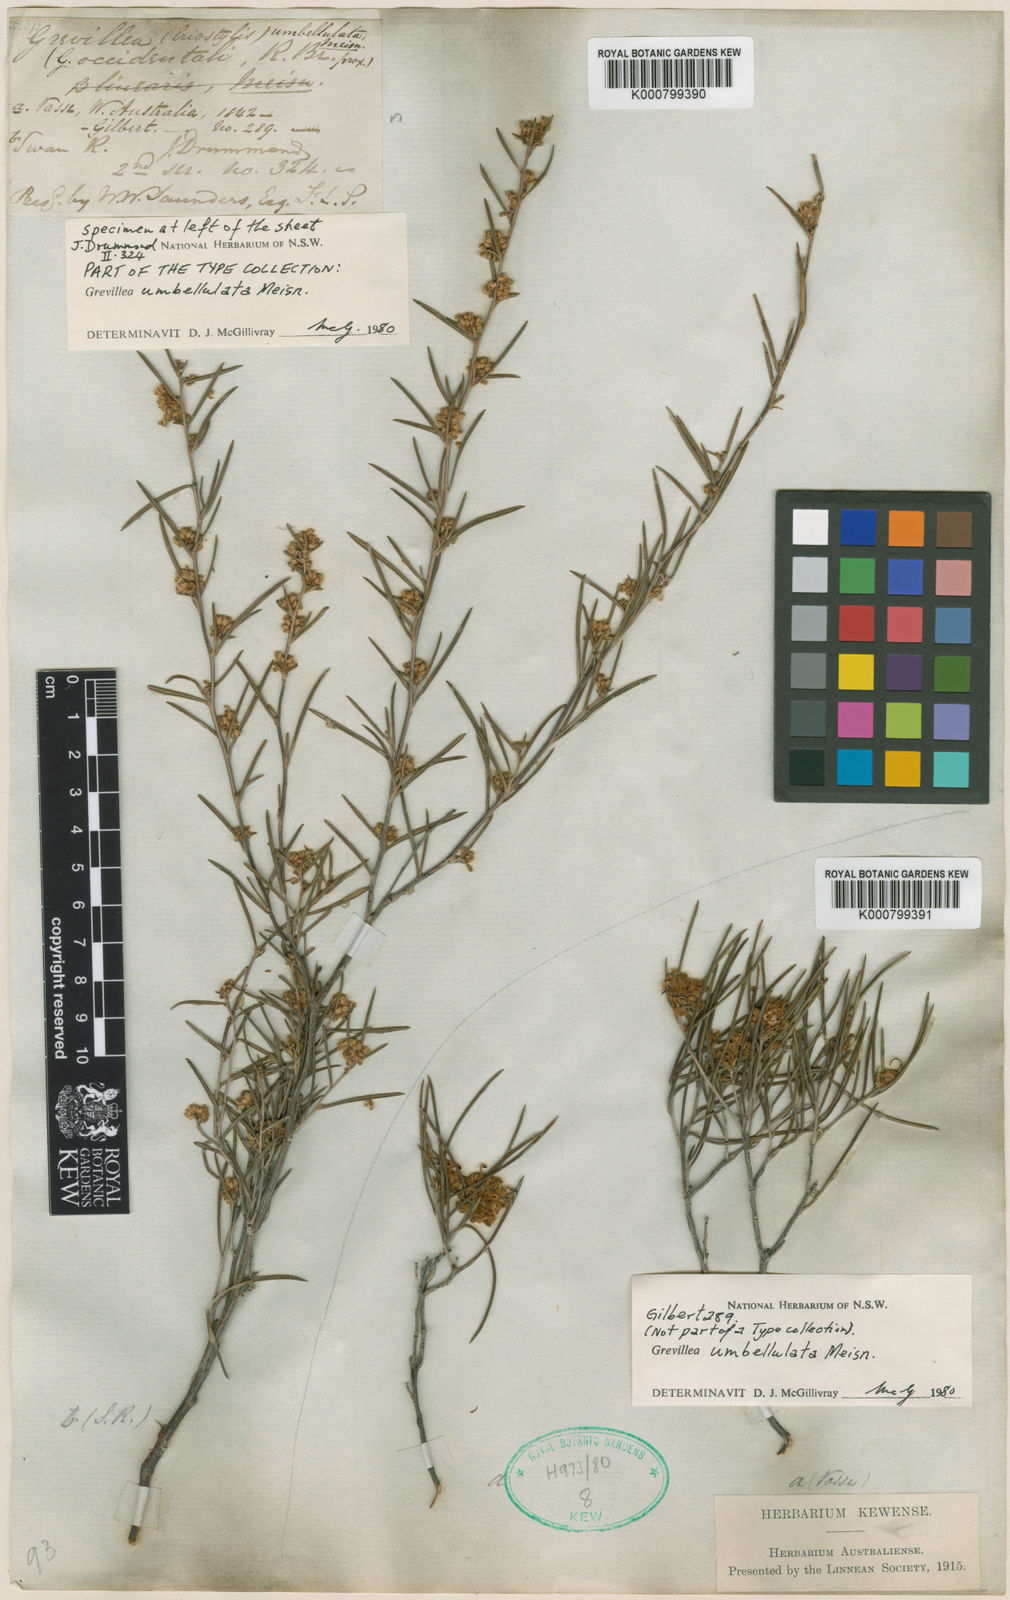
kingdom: Plantae
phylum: Tracheophyta
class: Magnoliopsida
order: Proteales
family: Proteaceae
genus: Grevillea
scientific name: Grevillea umbellulata
